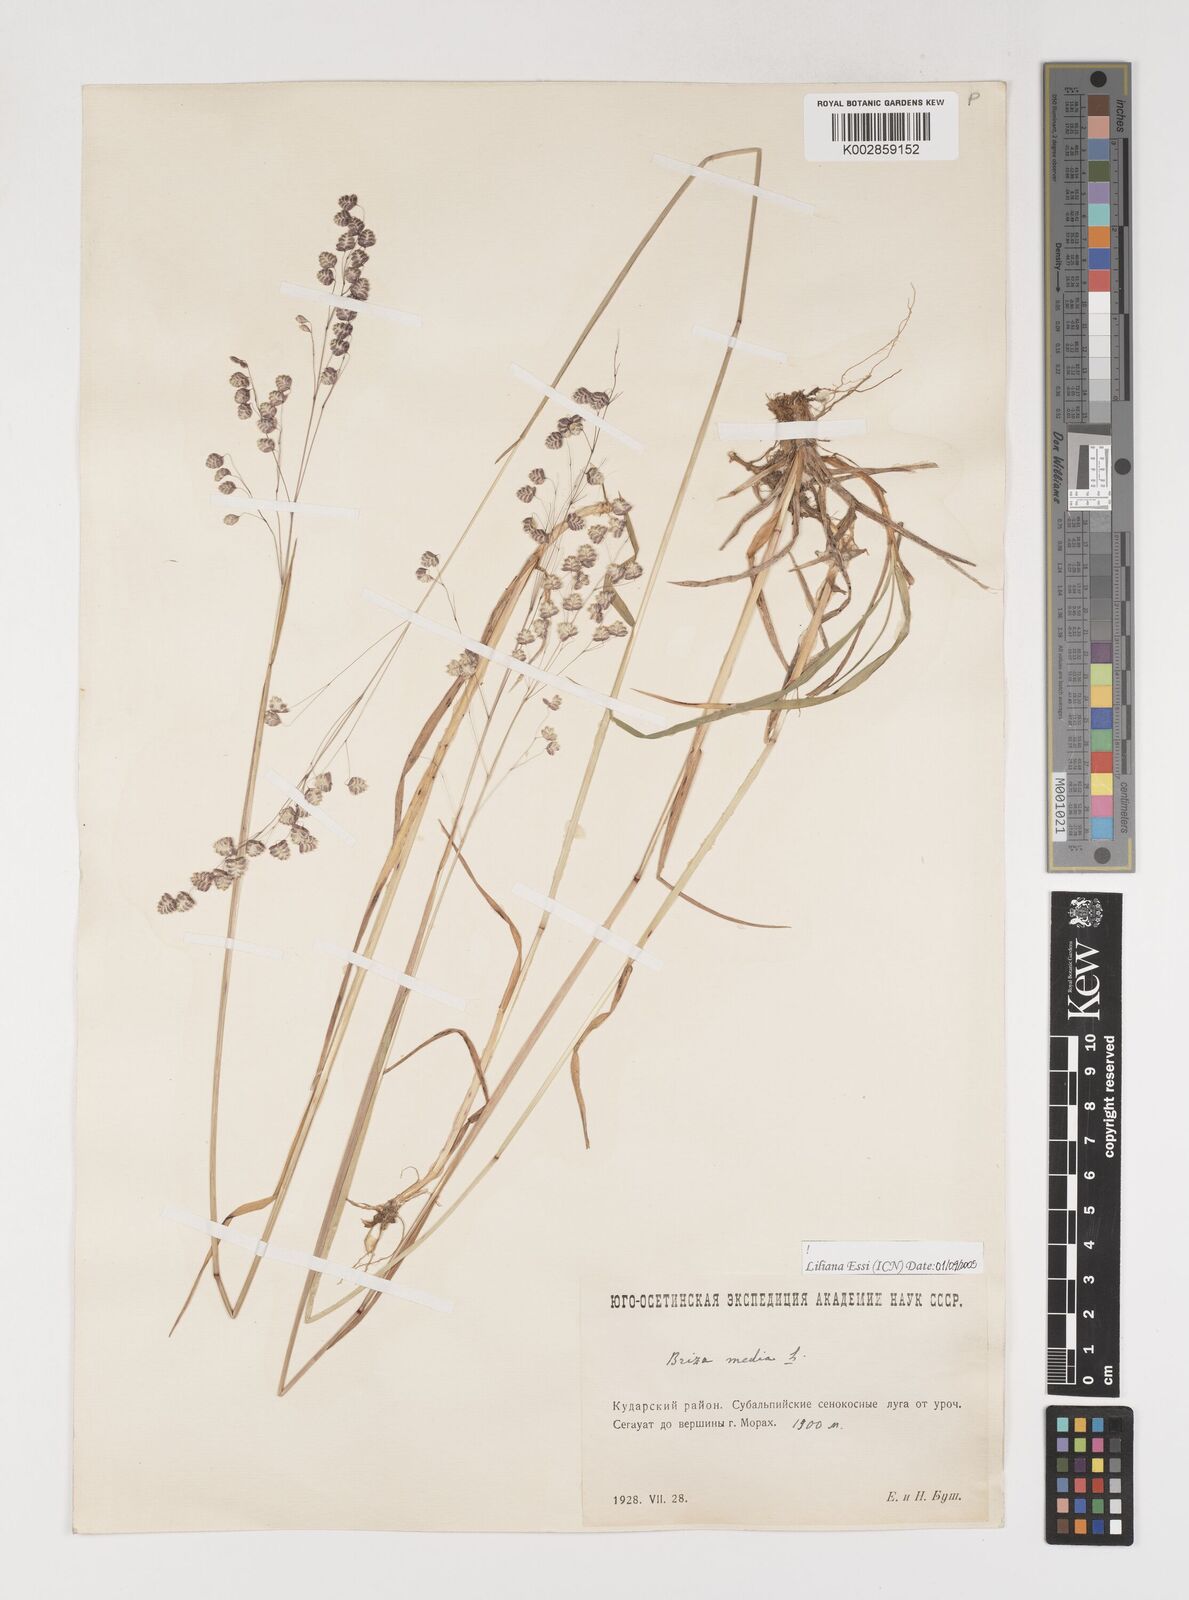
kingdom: Plantae
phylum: Tracheophyta
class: Liliopsida
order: Poales
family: Poaceae
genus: Briza
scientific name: Briza media
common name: Quaking grass
